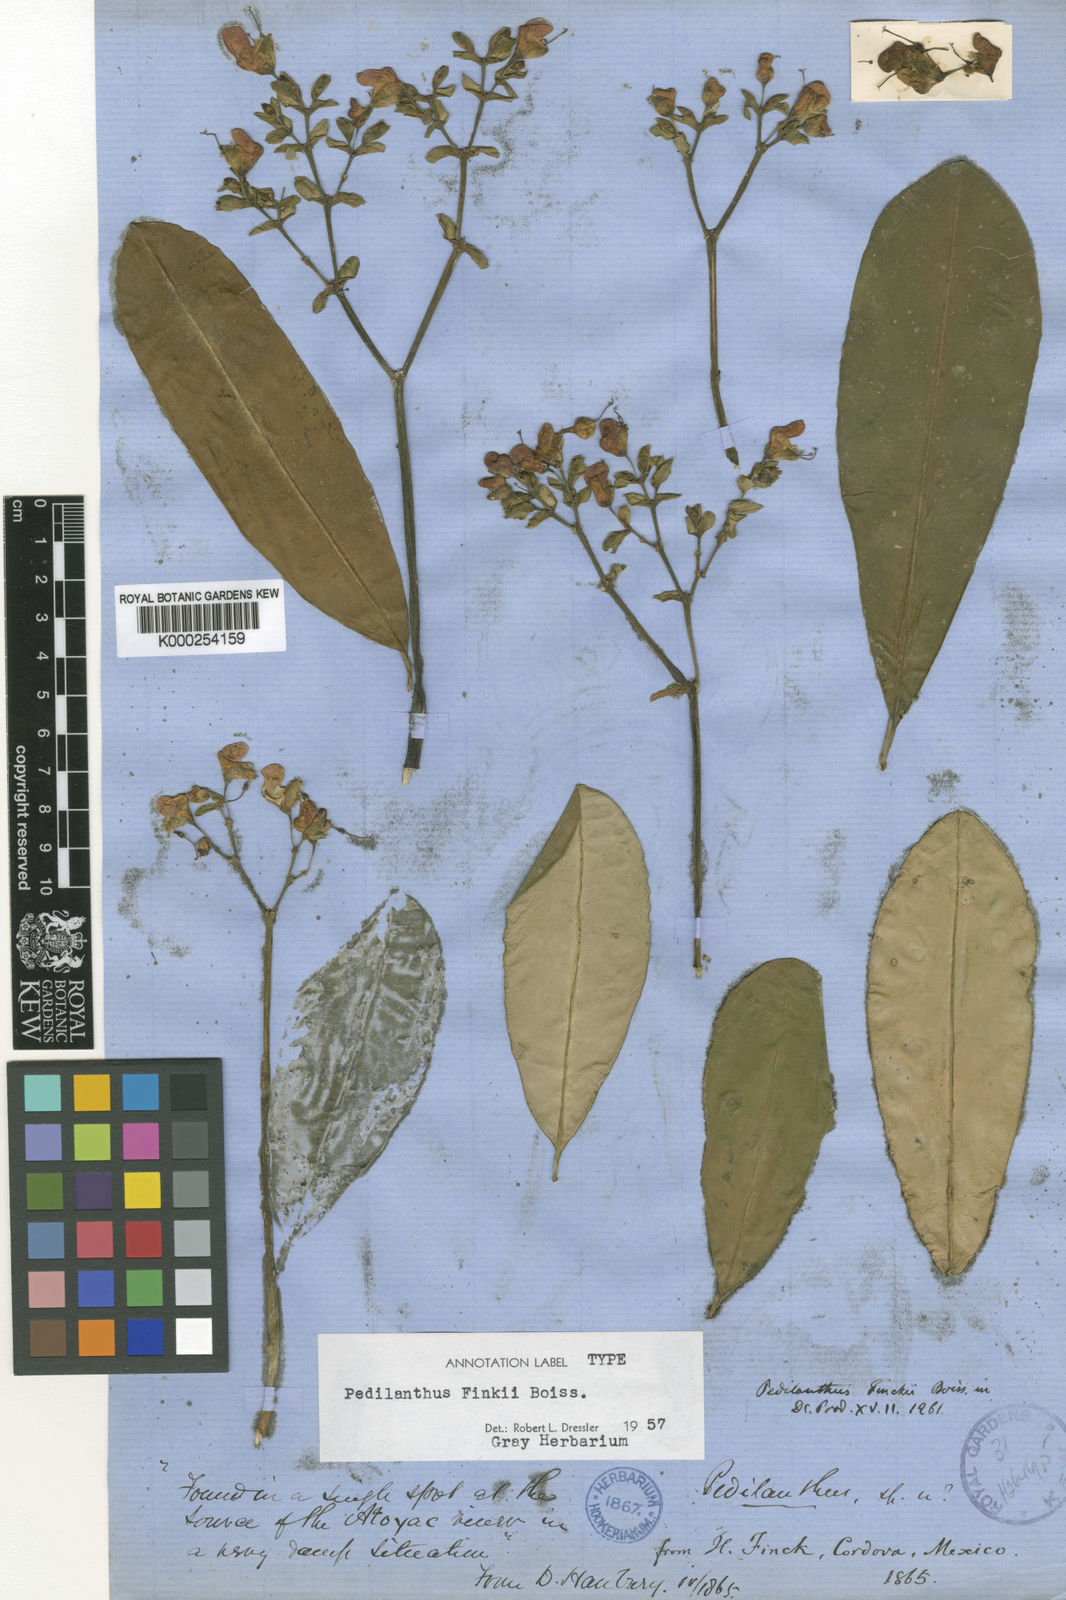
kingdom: Plantae
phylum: Tracheophyta
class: Magnoliopsida
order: Malpighiales
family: Euphorbiaceae
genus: Euphorbia
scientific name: Euphorbia finkii
